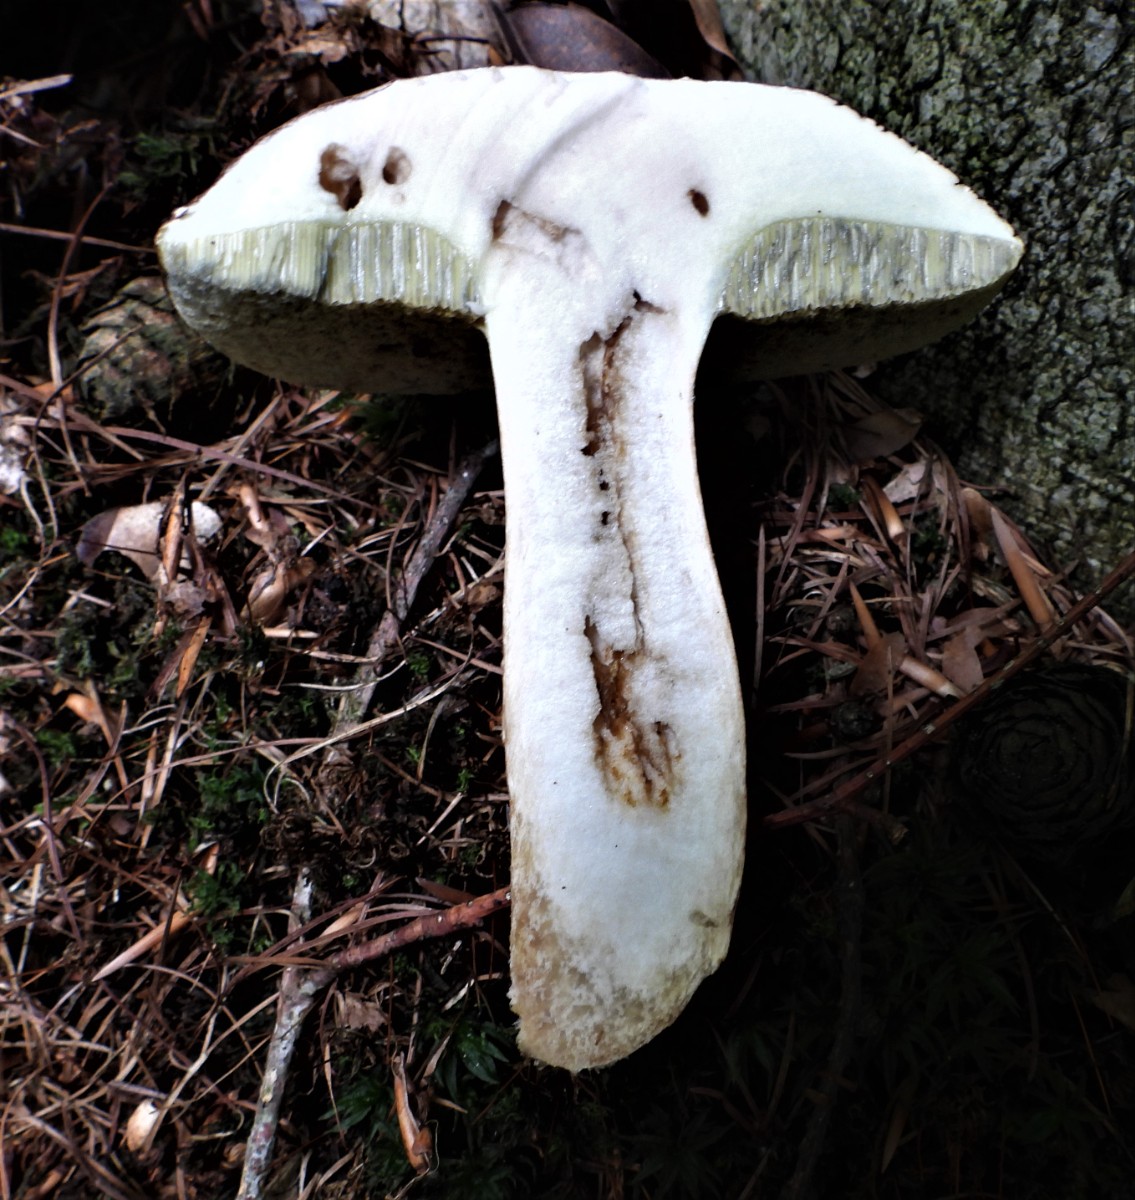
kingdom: Fungi
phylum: Basidiomycota
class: Agaricomycetes
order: Boletales
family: Boletaceae
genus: Imleria
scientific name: Imleria badia
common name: brunstokket rørhat
